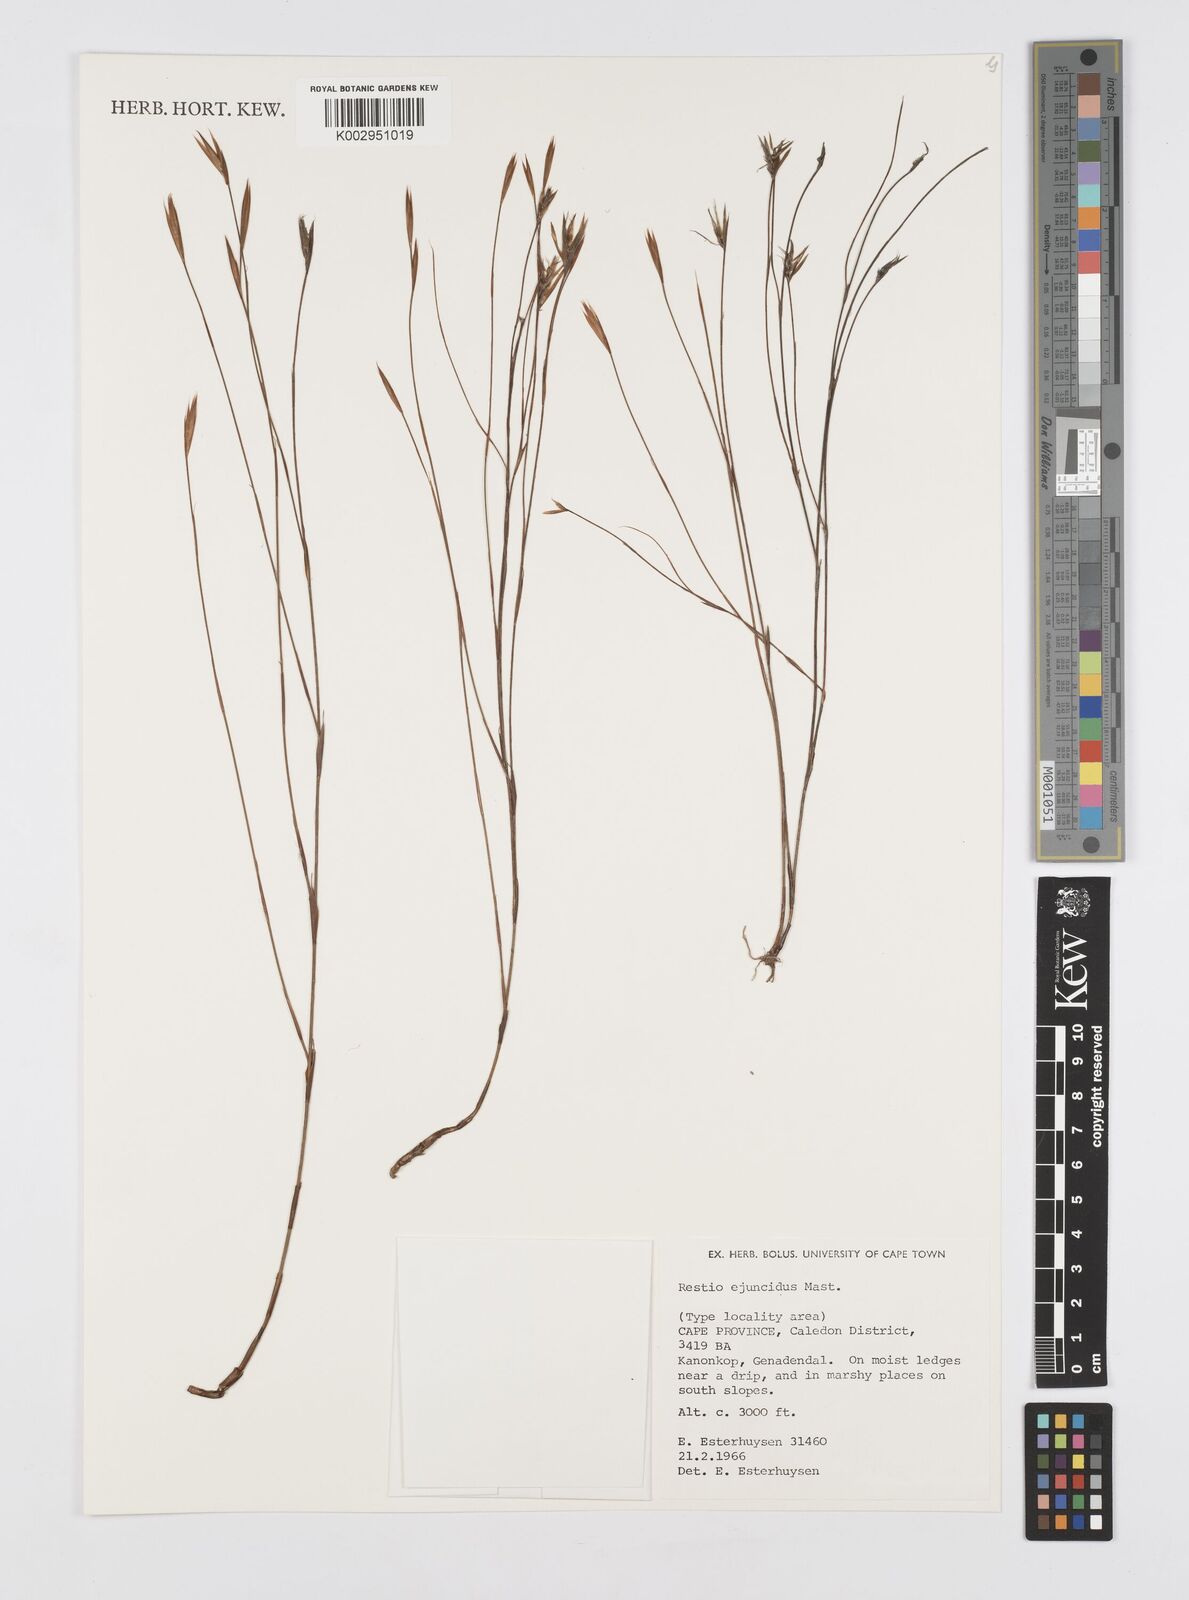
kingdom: Plantae
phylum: Tracheophyta
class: Liliopsida
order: Poales
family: Restionaceae
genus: Restio
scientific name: Restio ejuncidus
